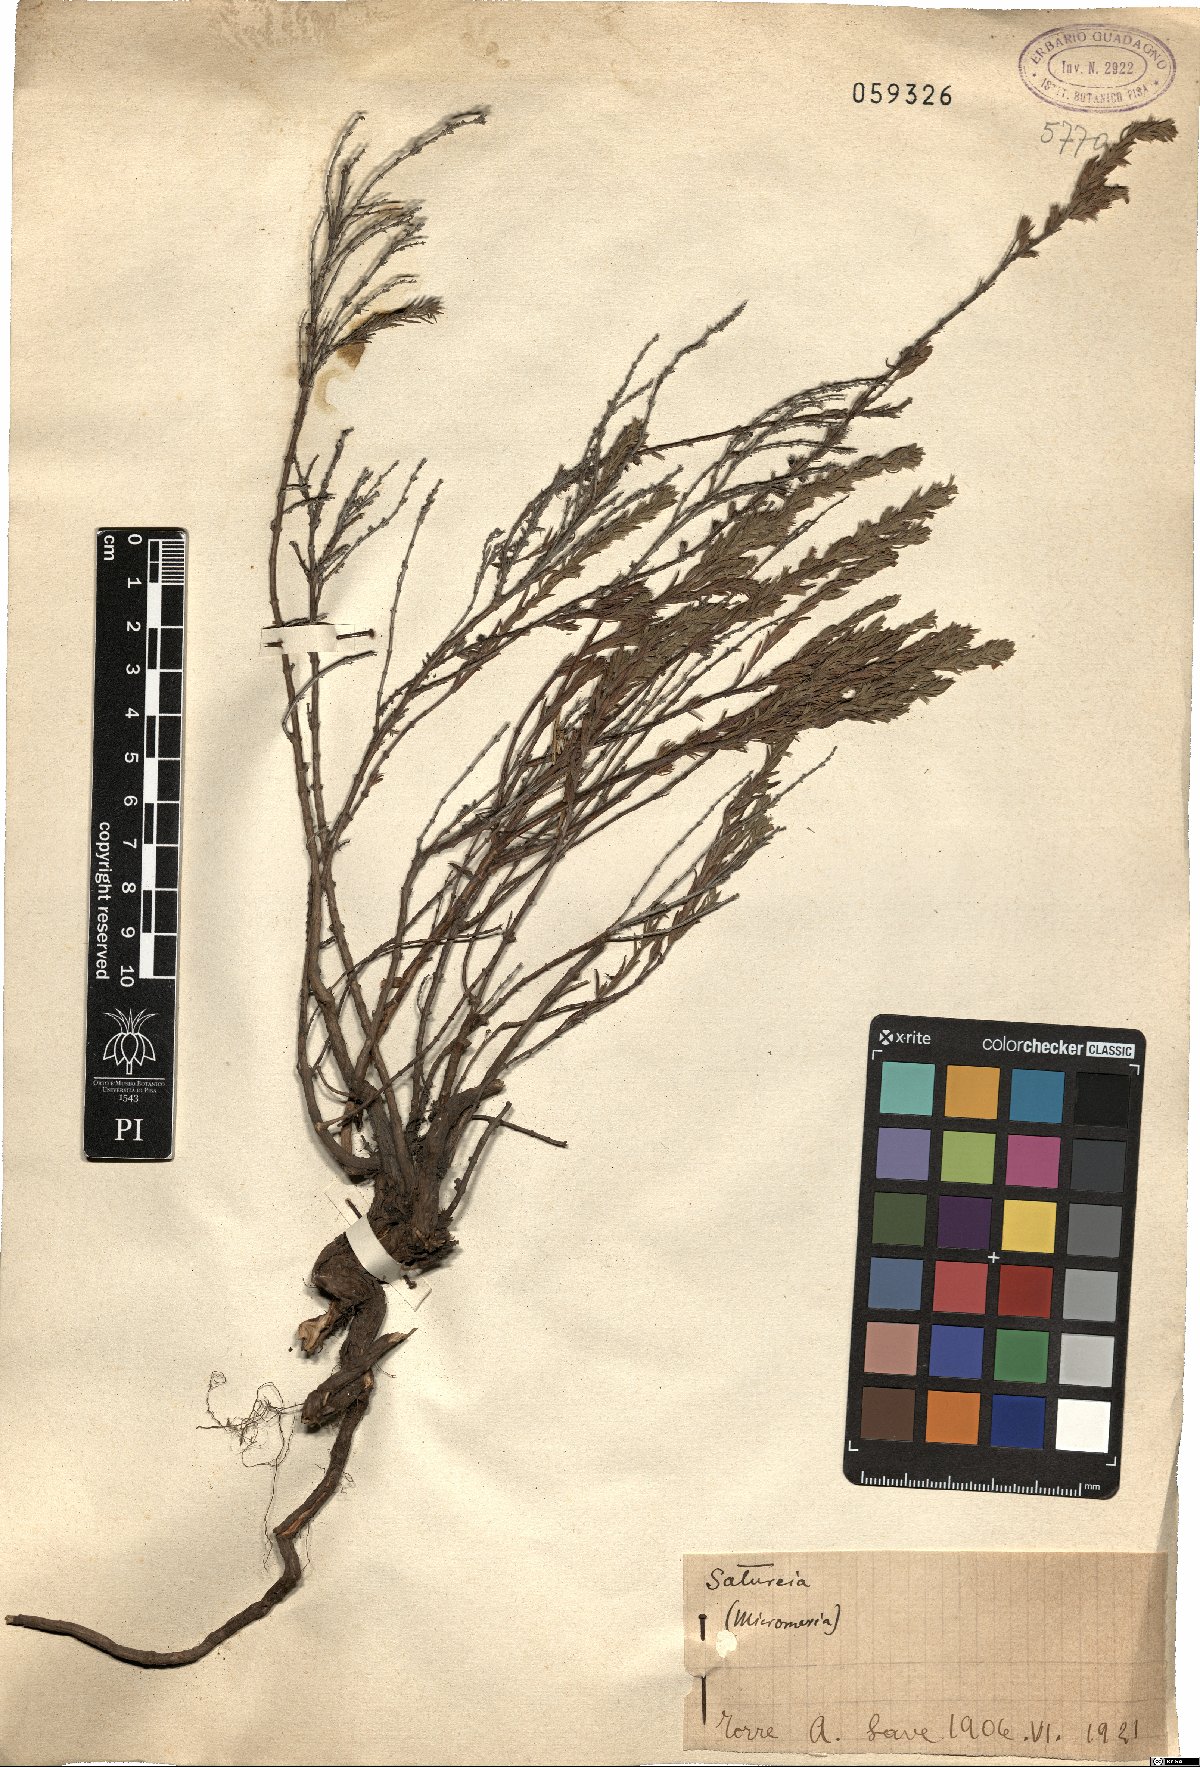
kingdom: Plantae
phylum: Tracheophyta
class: Magnoliopsida
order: Lamiales
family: Lamiaceae
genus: Satureja
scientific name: Satureja
